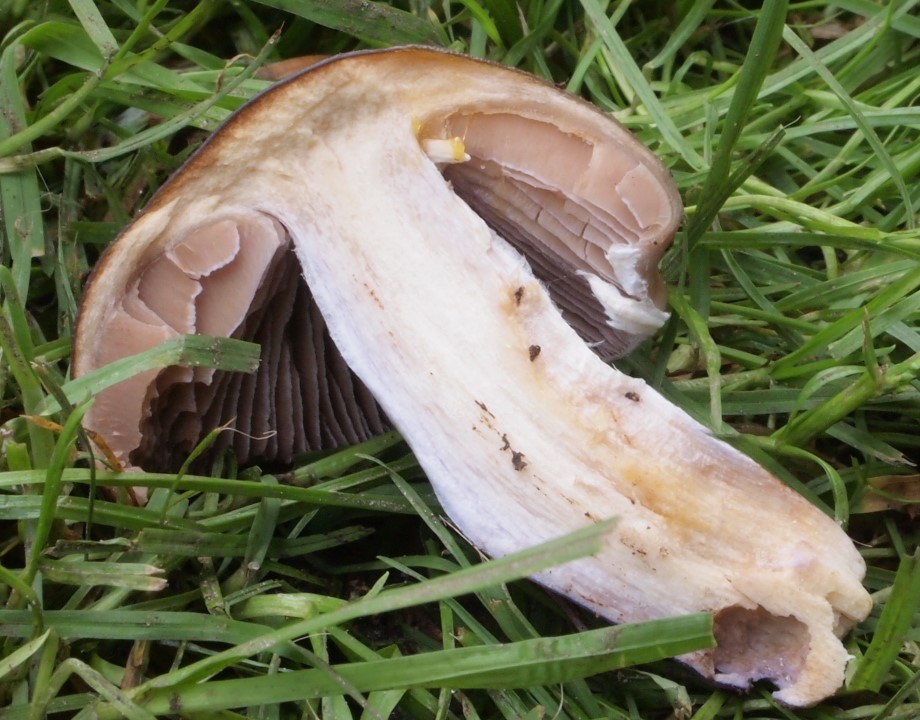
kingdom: Fungi
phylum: Basidiomycota
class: Agaricomycetes
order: Agaricales
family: Cortinariaceae
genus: Cortinarius
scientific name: Cortinarius elatior
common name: høj slørhat
